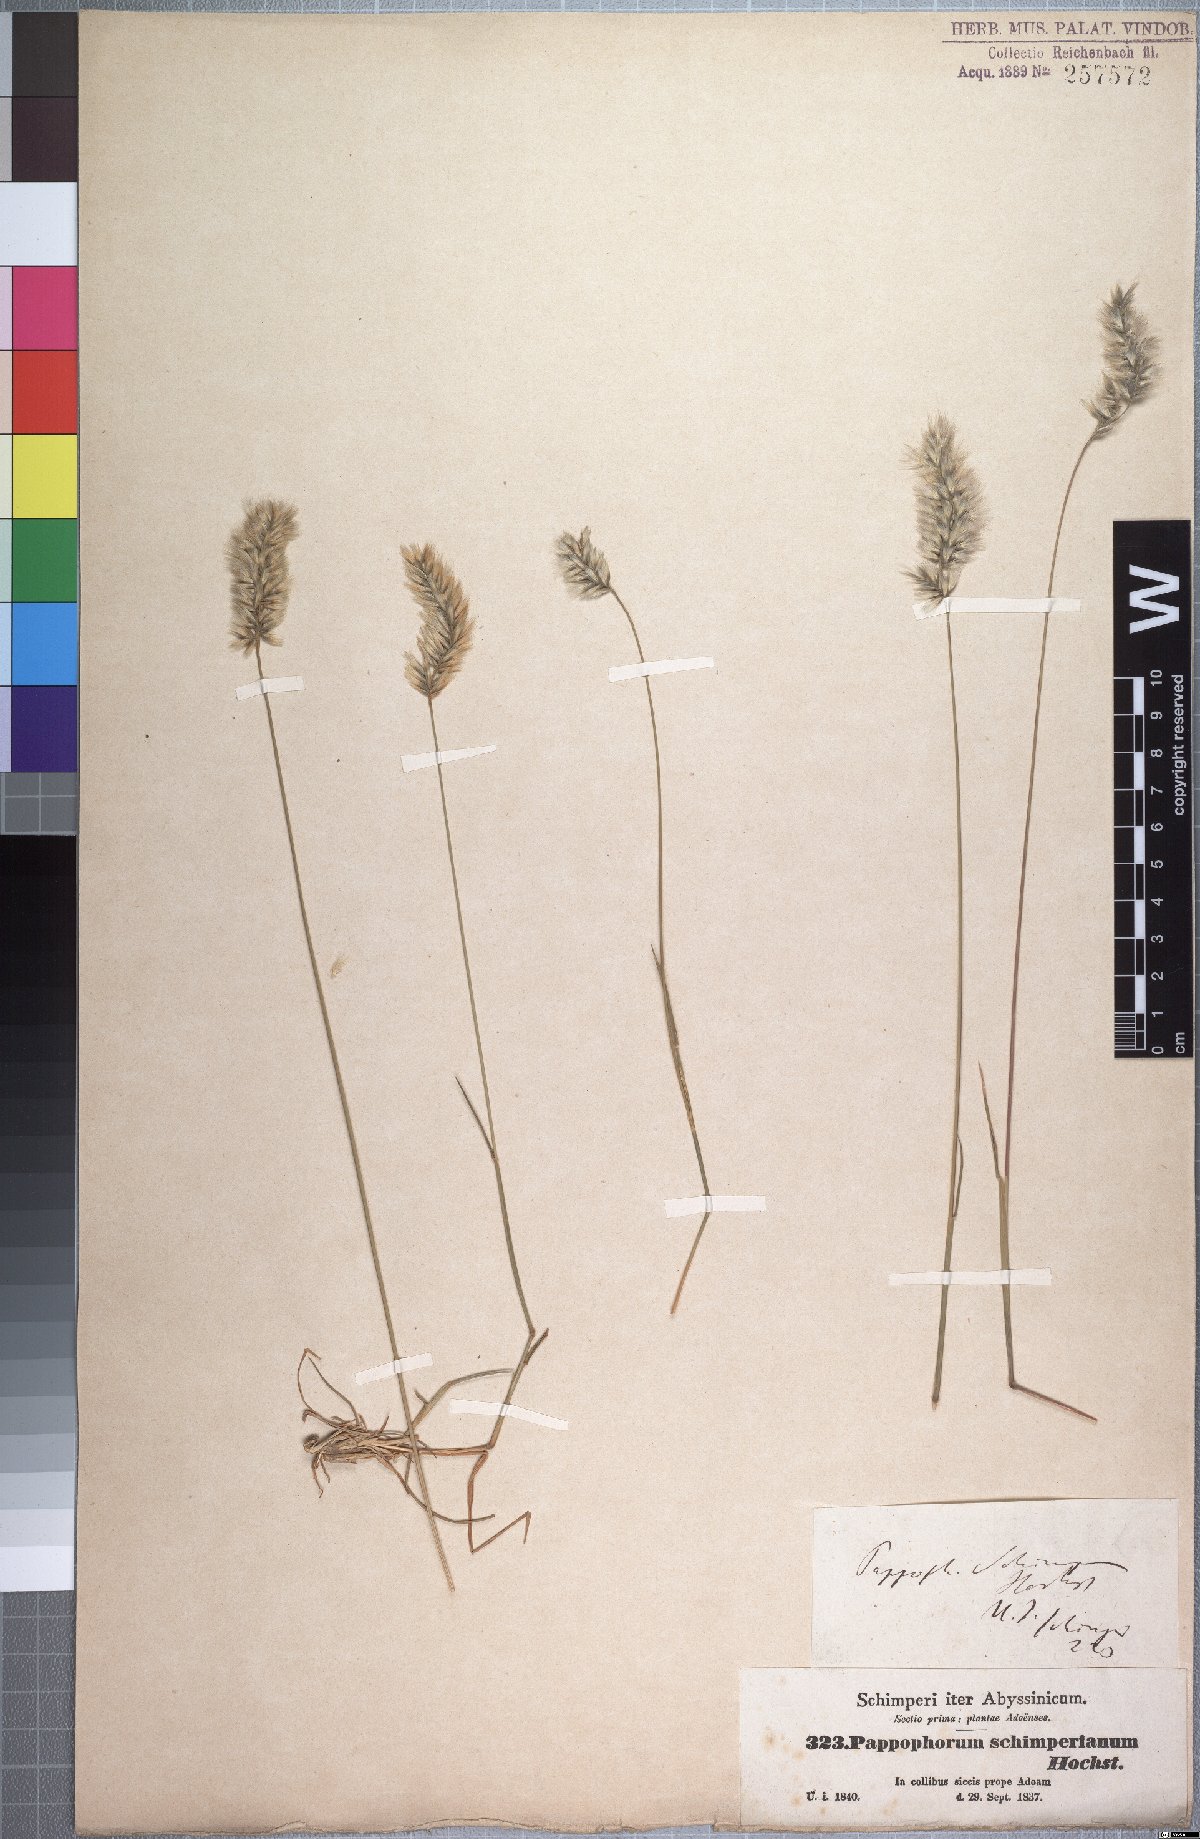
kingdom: Plantae
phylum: Tracheophyta
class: Liliopsida
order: Poales
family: Poaceae
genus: Enneapogon
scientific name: Enneapogon persicus
